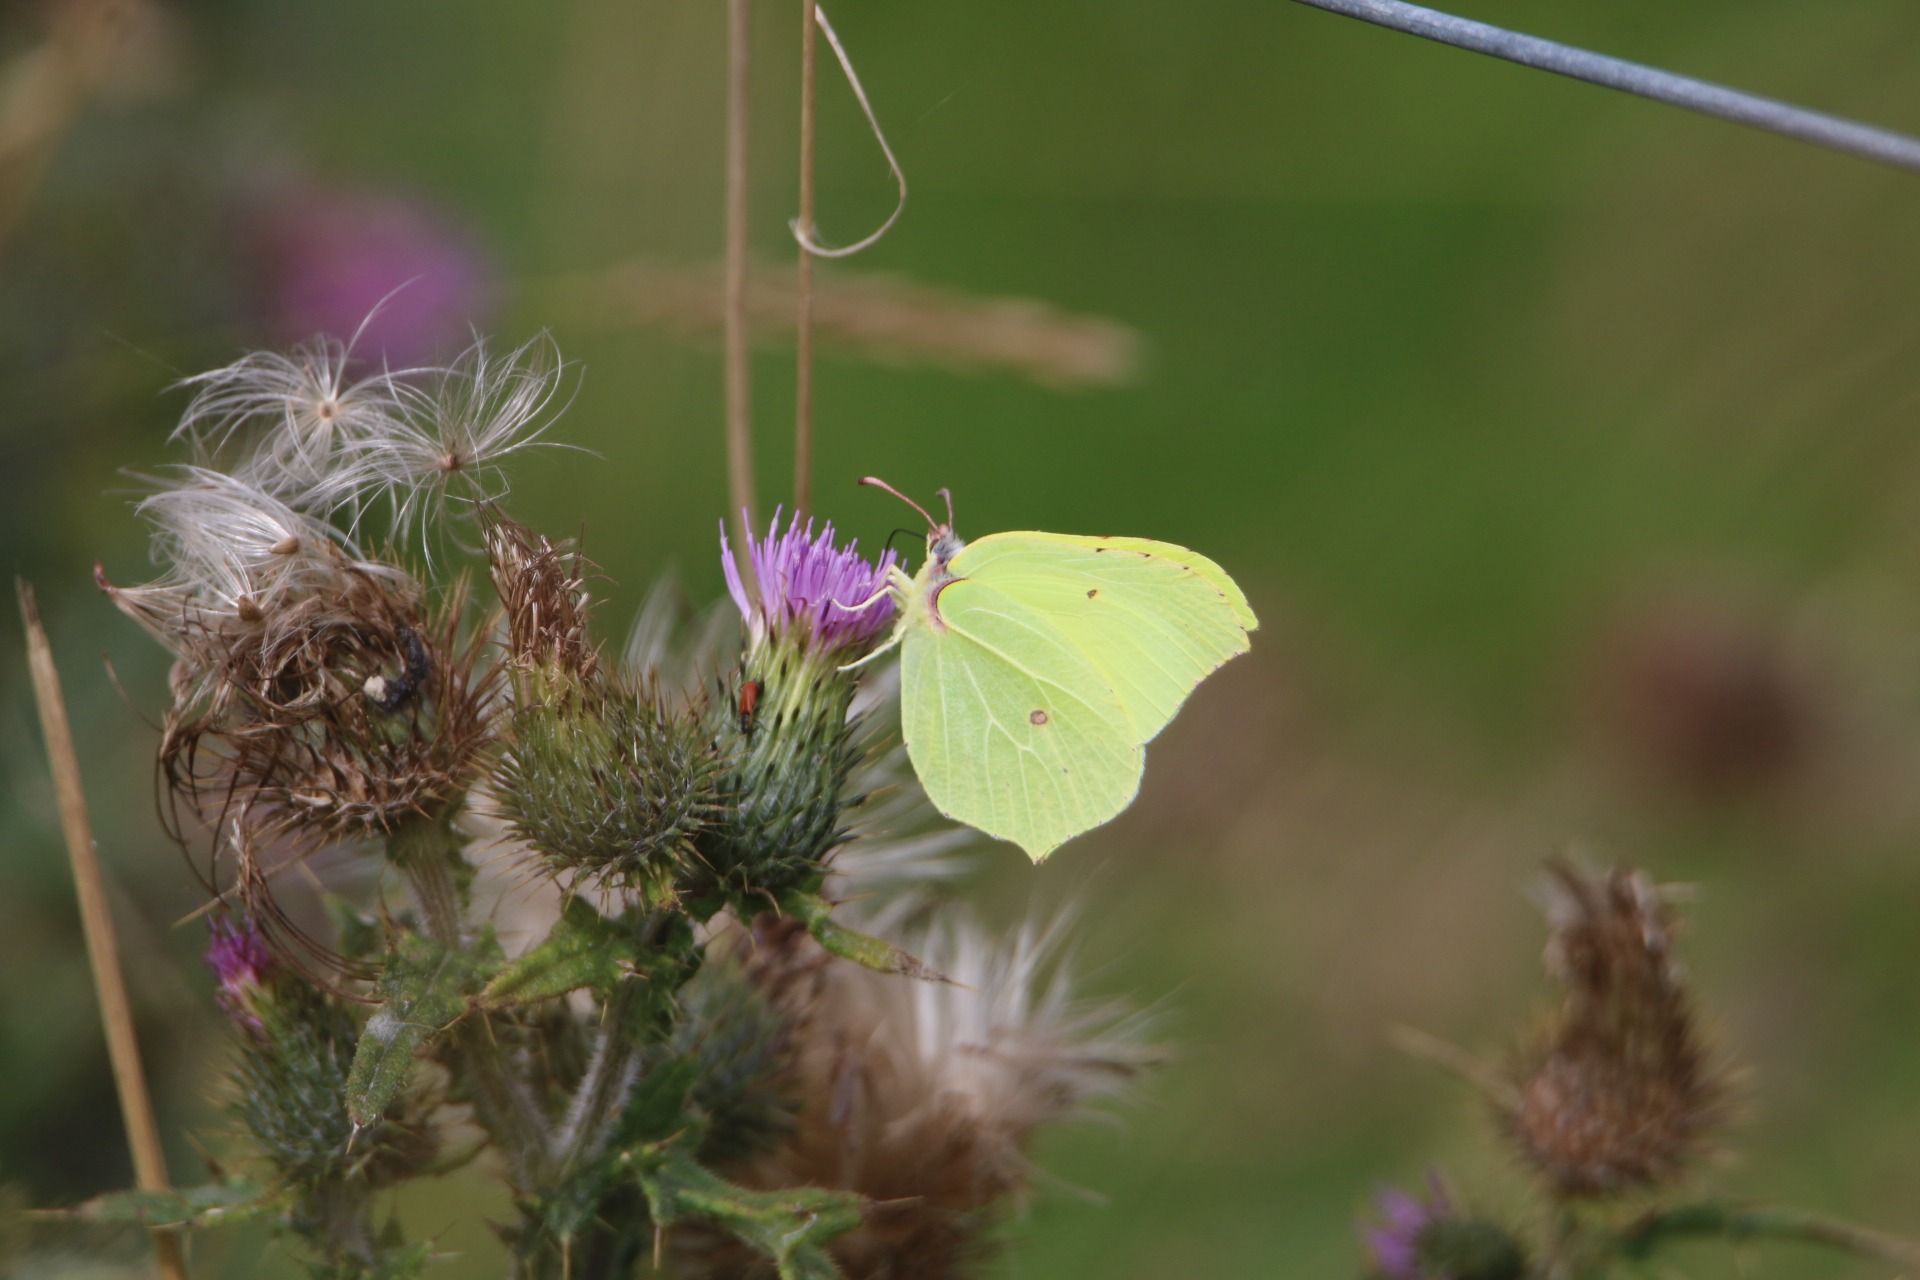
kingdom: Animalia
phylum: Arthropoda
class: Insecta
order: Lepidoptera
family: Pieridae
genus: Gonepteryx
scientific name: Gonepteryx rhamni
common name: Citronsommerfugl
